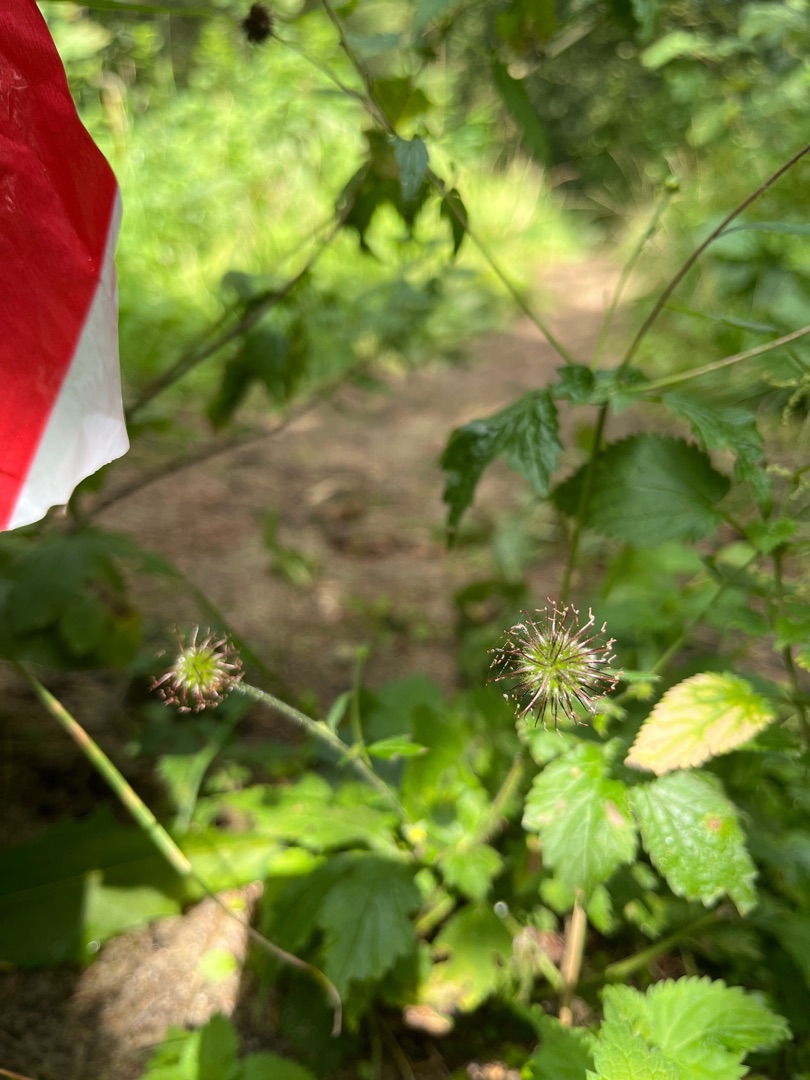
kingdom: Plantae
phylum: Tracheophyta
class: Magnoliopsida
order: Rosales
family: Rosaceae
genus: Geum
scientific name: Geum urbanum
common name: Feber-nellikerod
